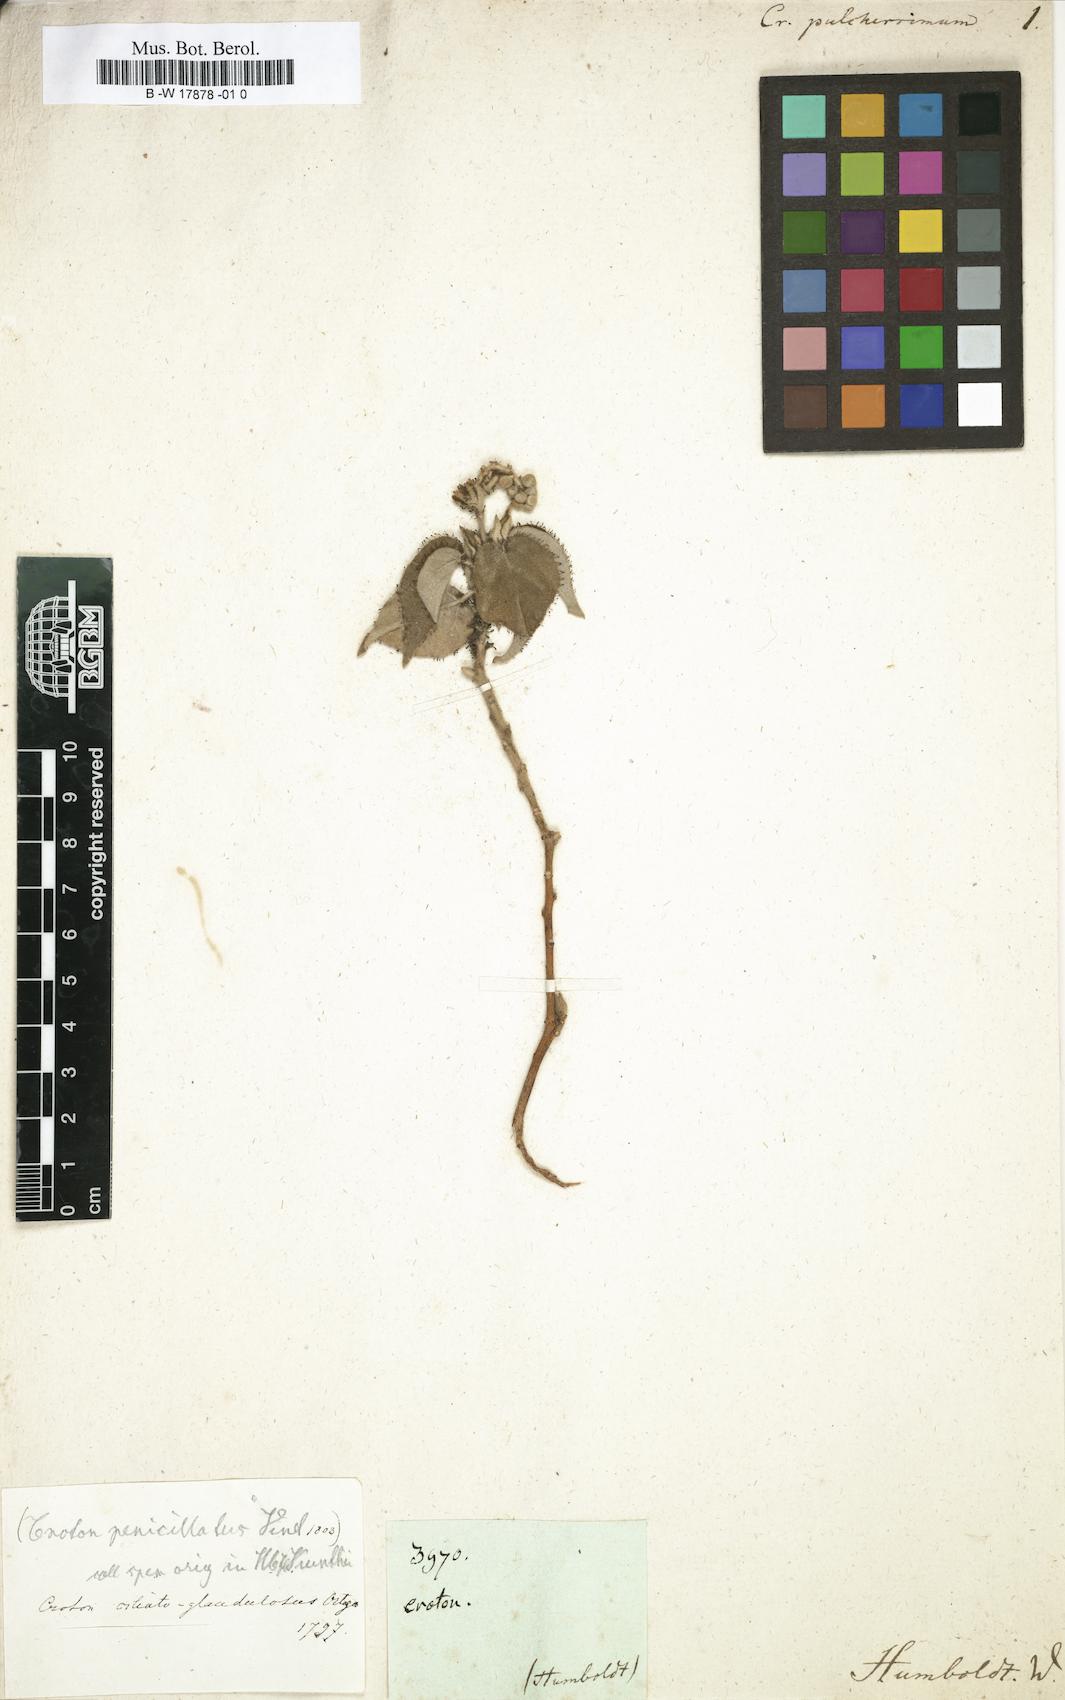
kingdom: Plantae
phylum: Tracheophyta
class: Magnoliopsida
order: Malpighiales
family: Euphorbiaceae
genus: Croton
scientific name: Croton ciliatoglandulifer
